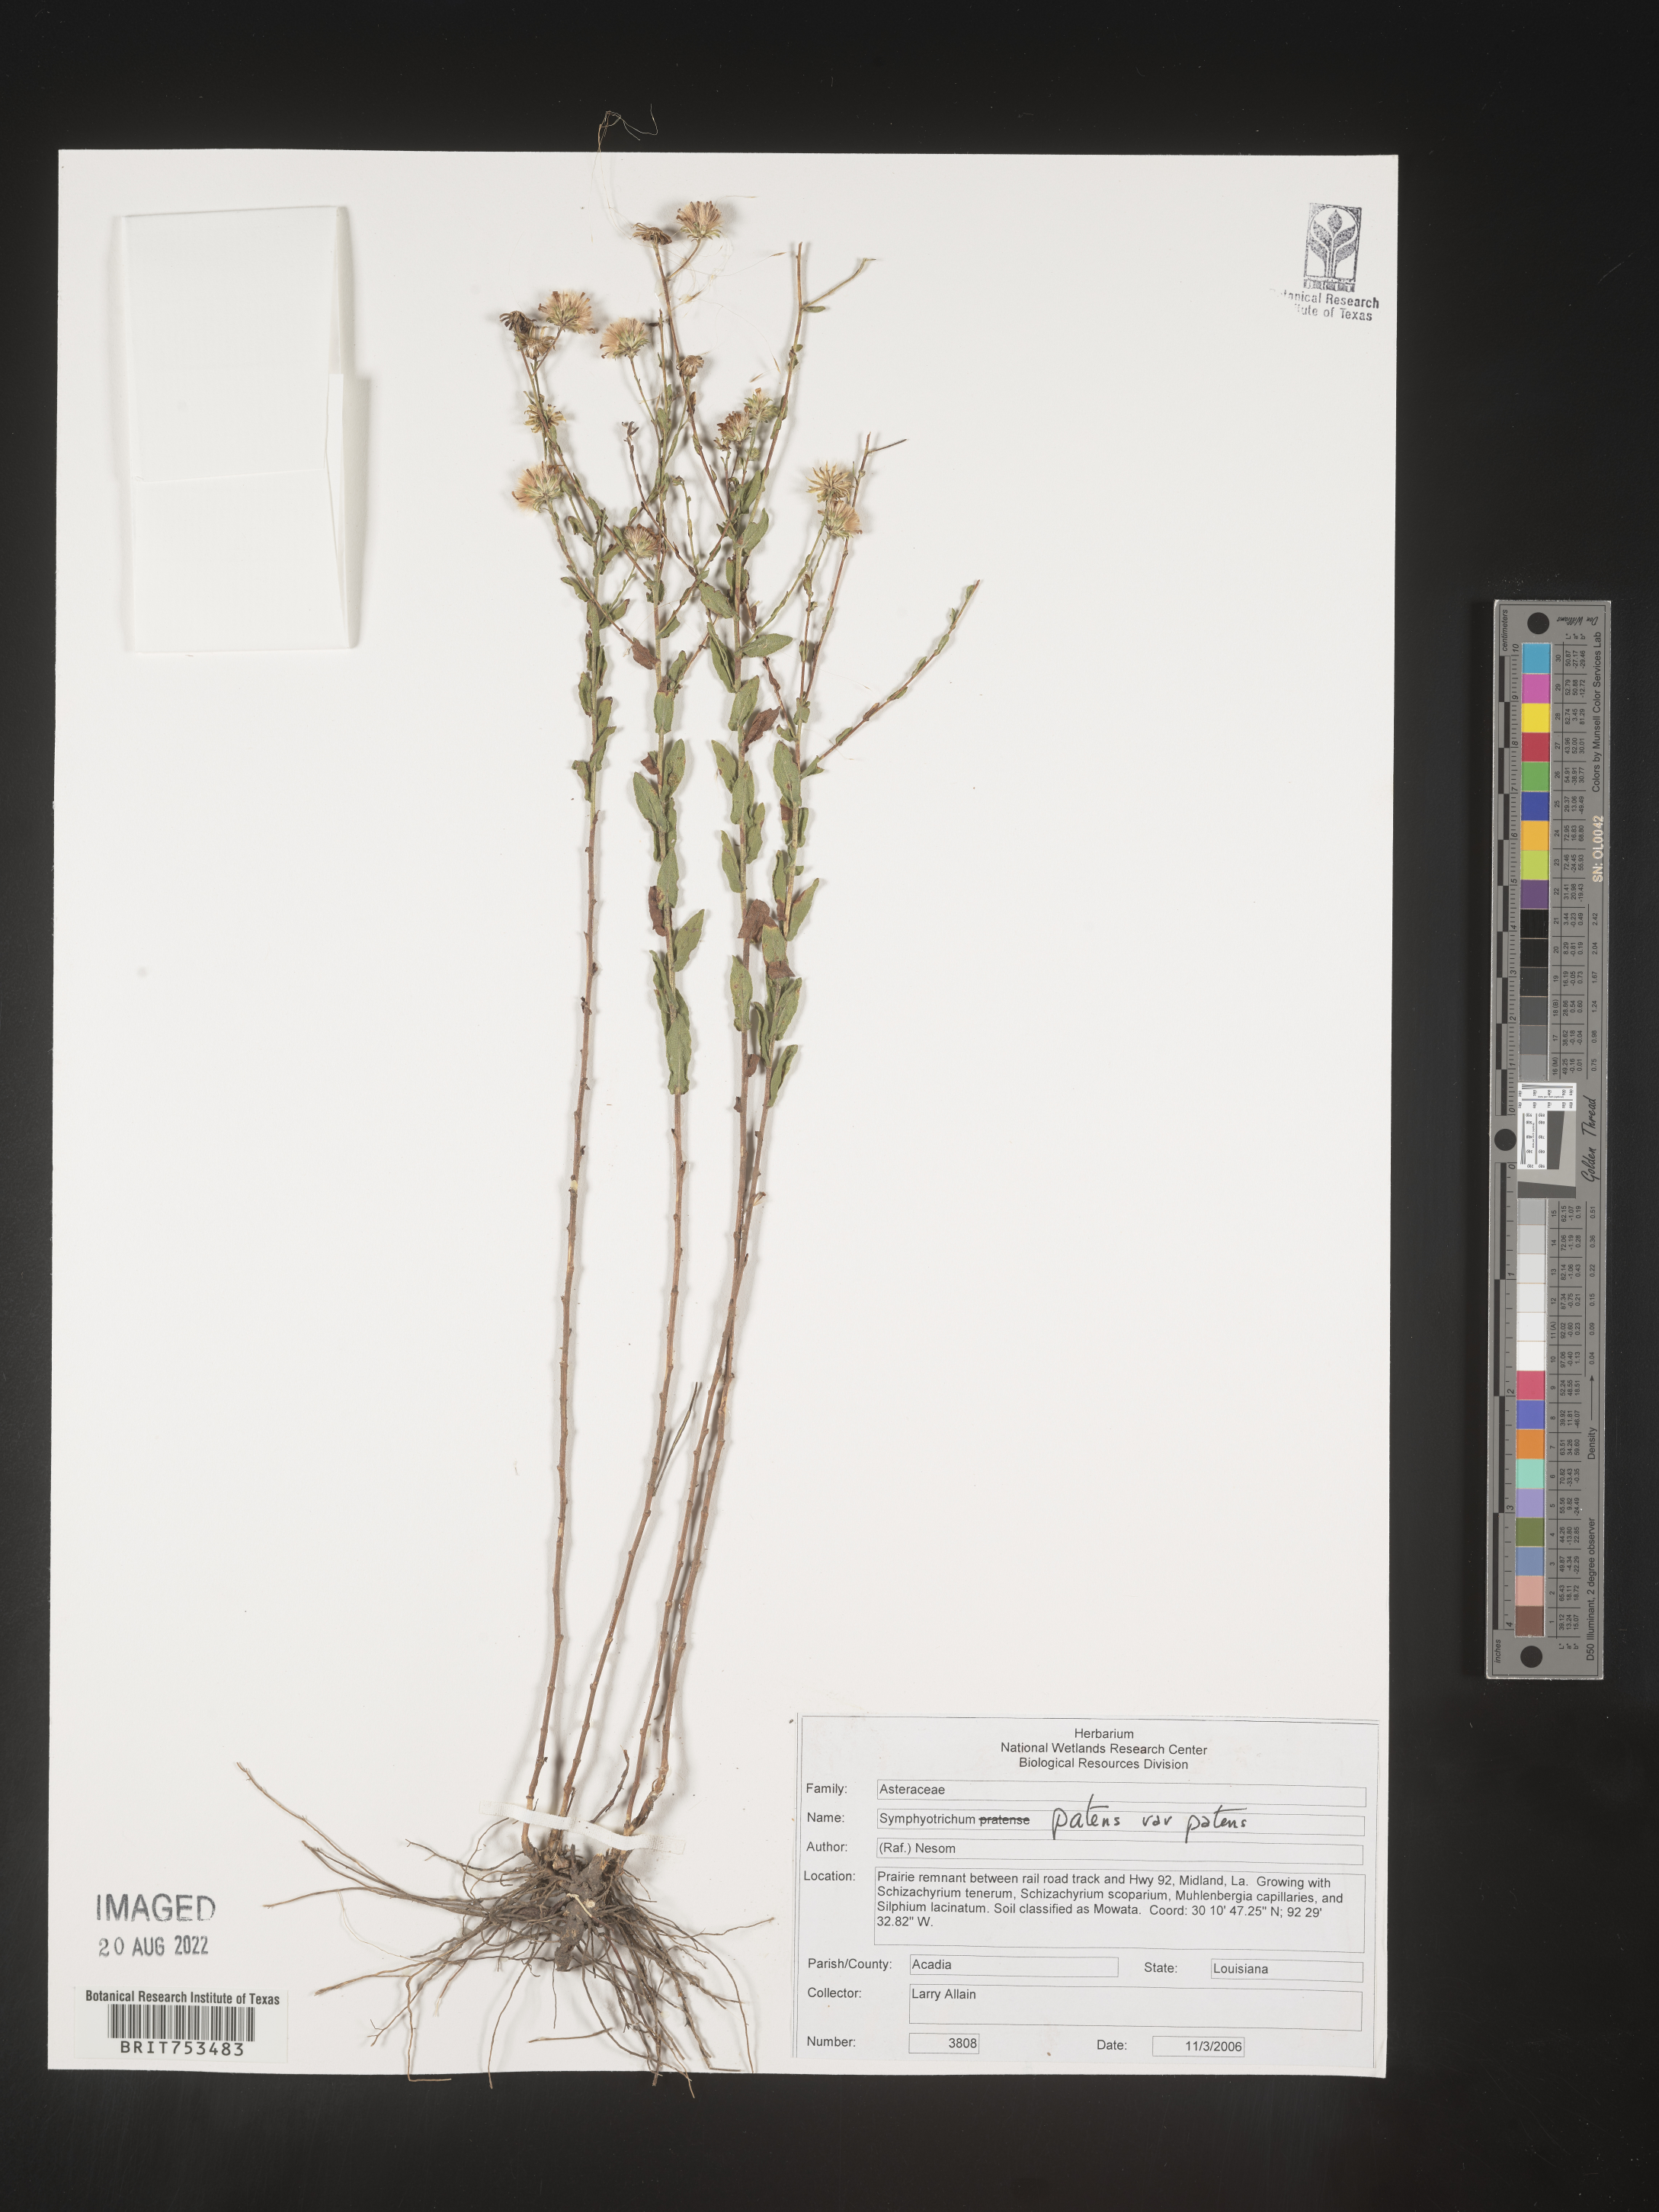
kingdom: Plantae
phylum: Tracheophyta
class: Magnoliopsida
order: Asterales
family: Asteraceae
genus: Symphyotrichum
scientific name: Symphyotrichum patens
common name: Late purple aster
